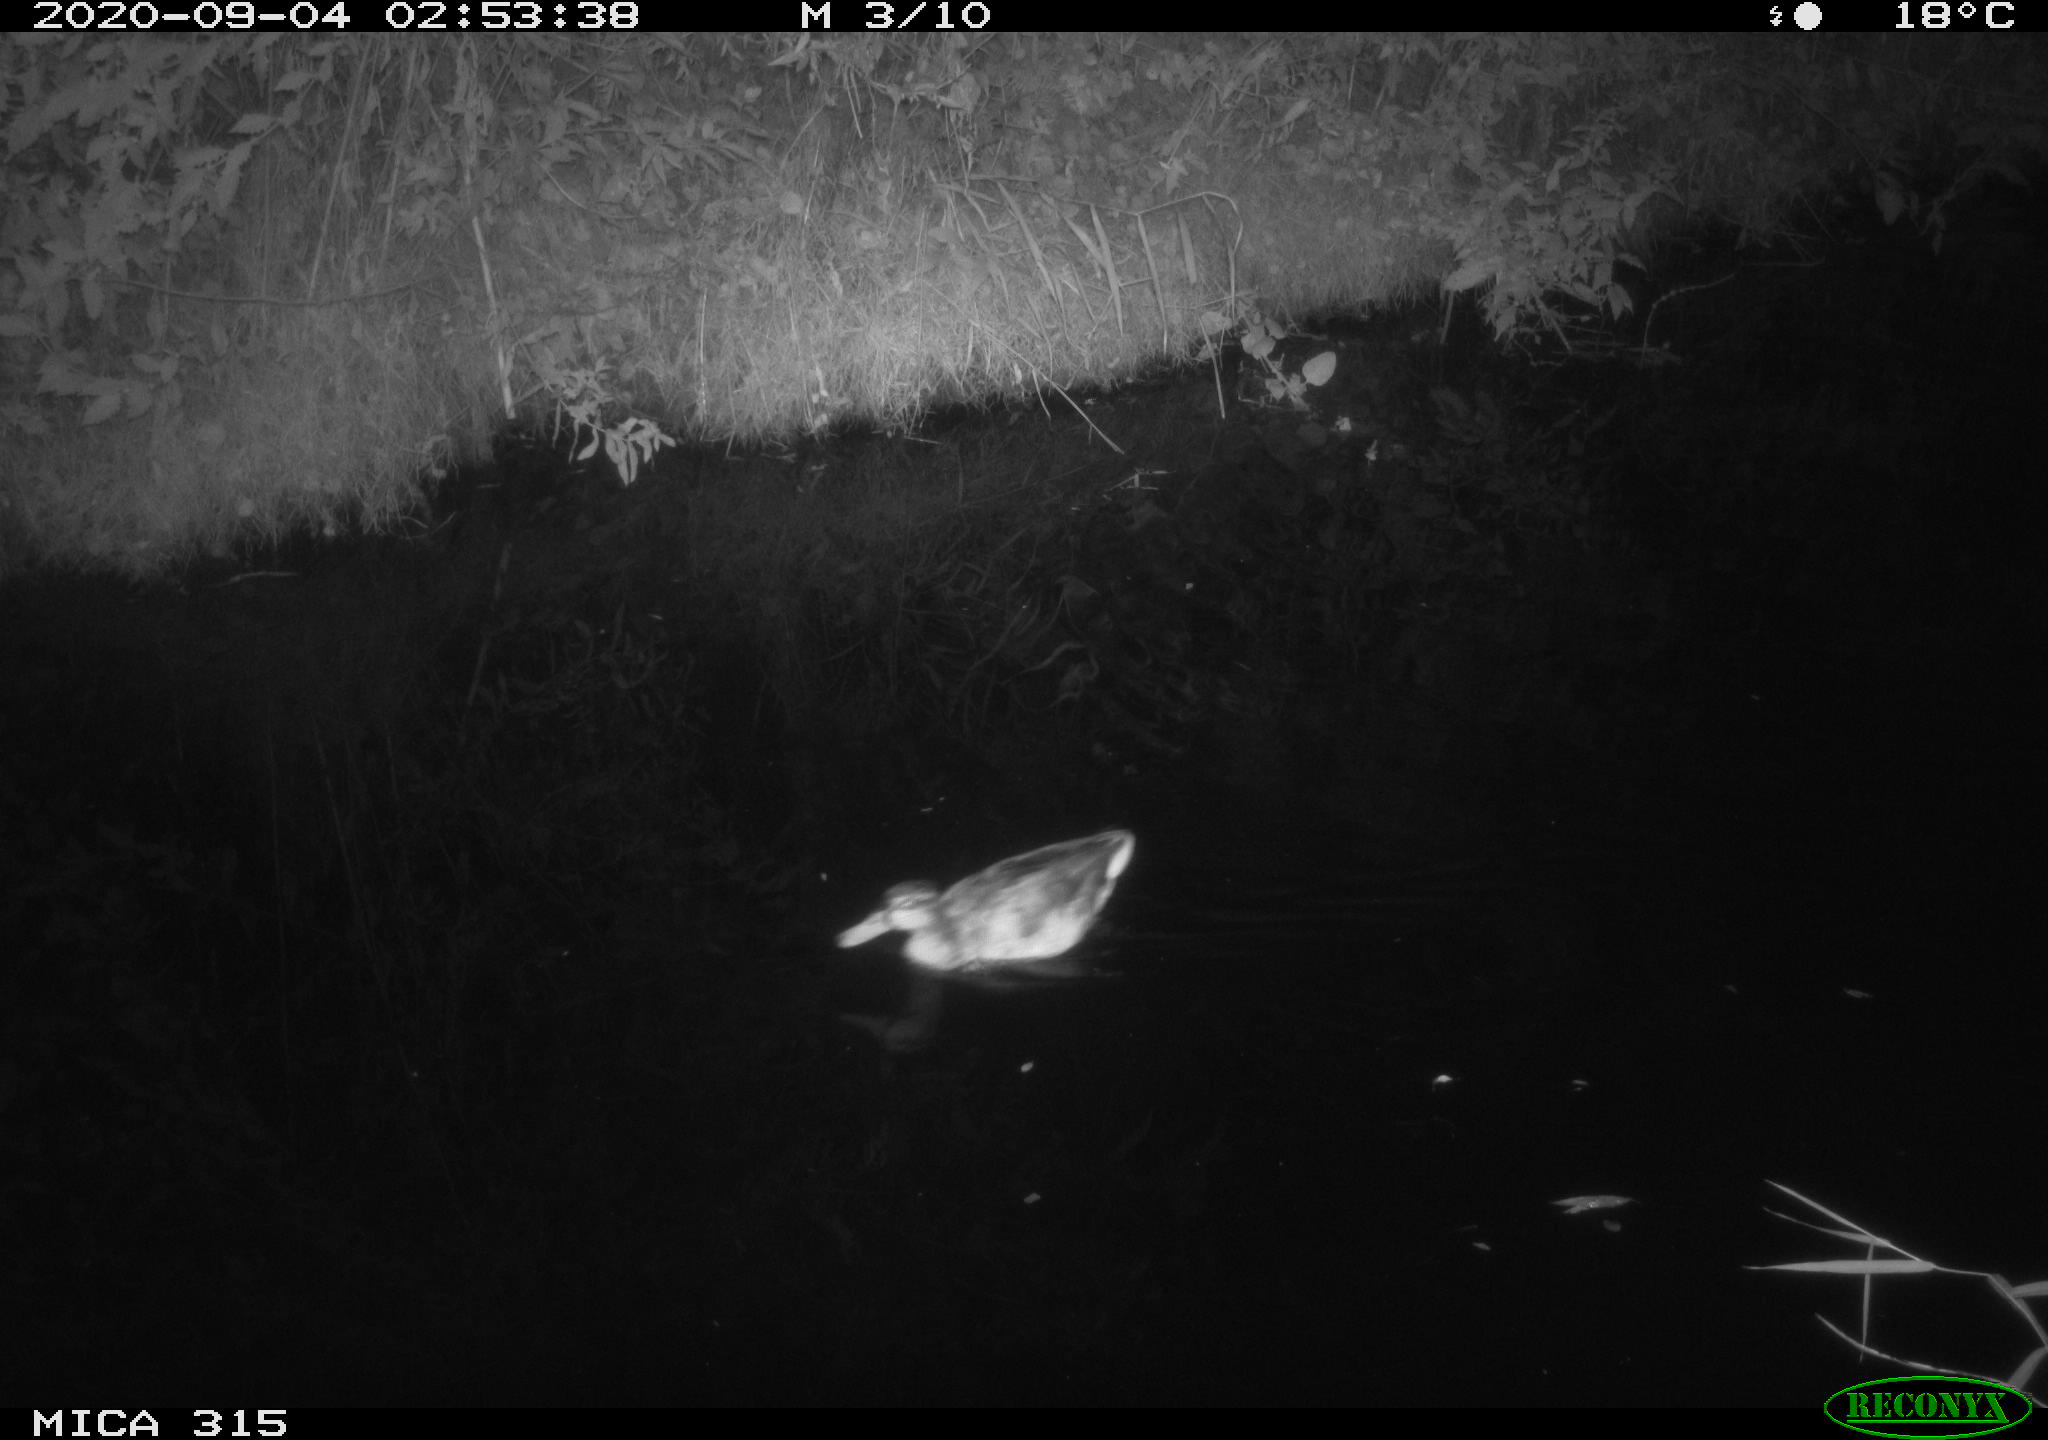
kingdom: Animalia
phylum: Chordata
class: Aves
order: Anseriformes
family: Anatidae
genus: Anas
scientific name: Anas platyrhynchos
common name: Mallard
